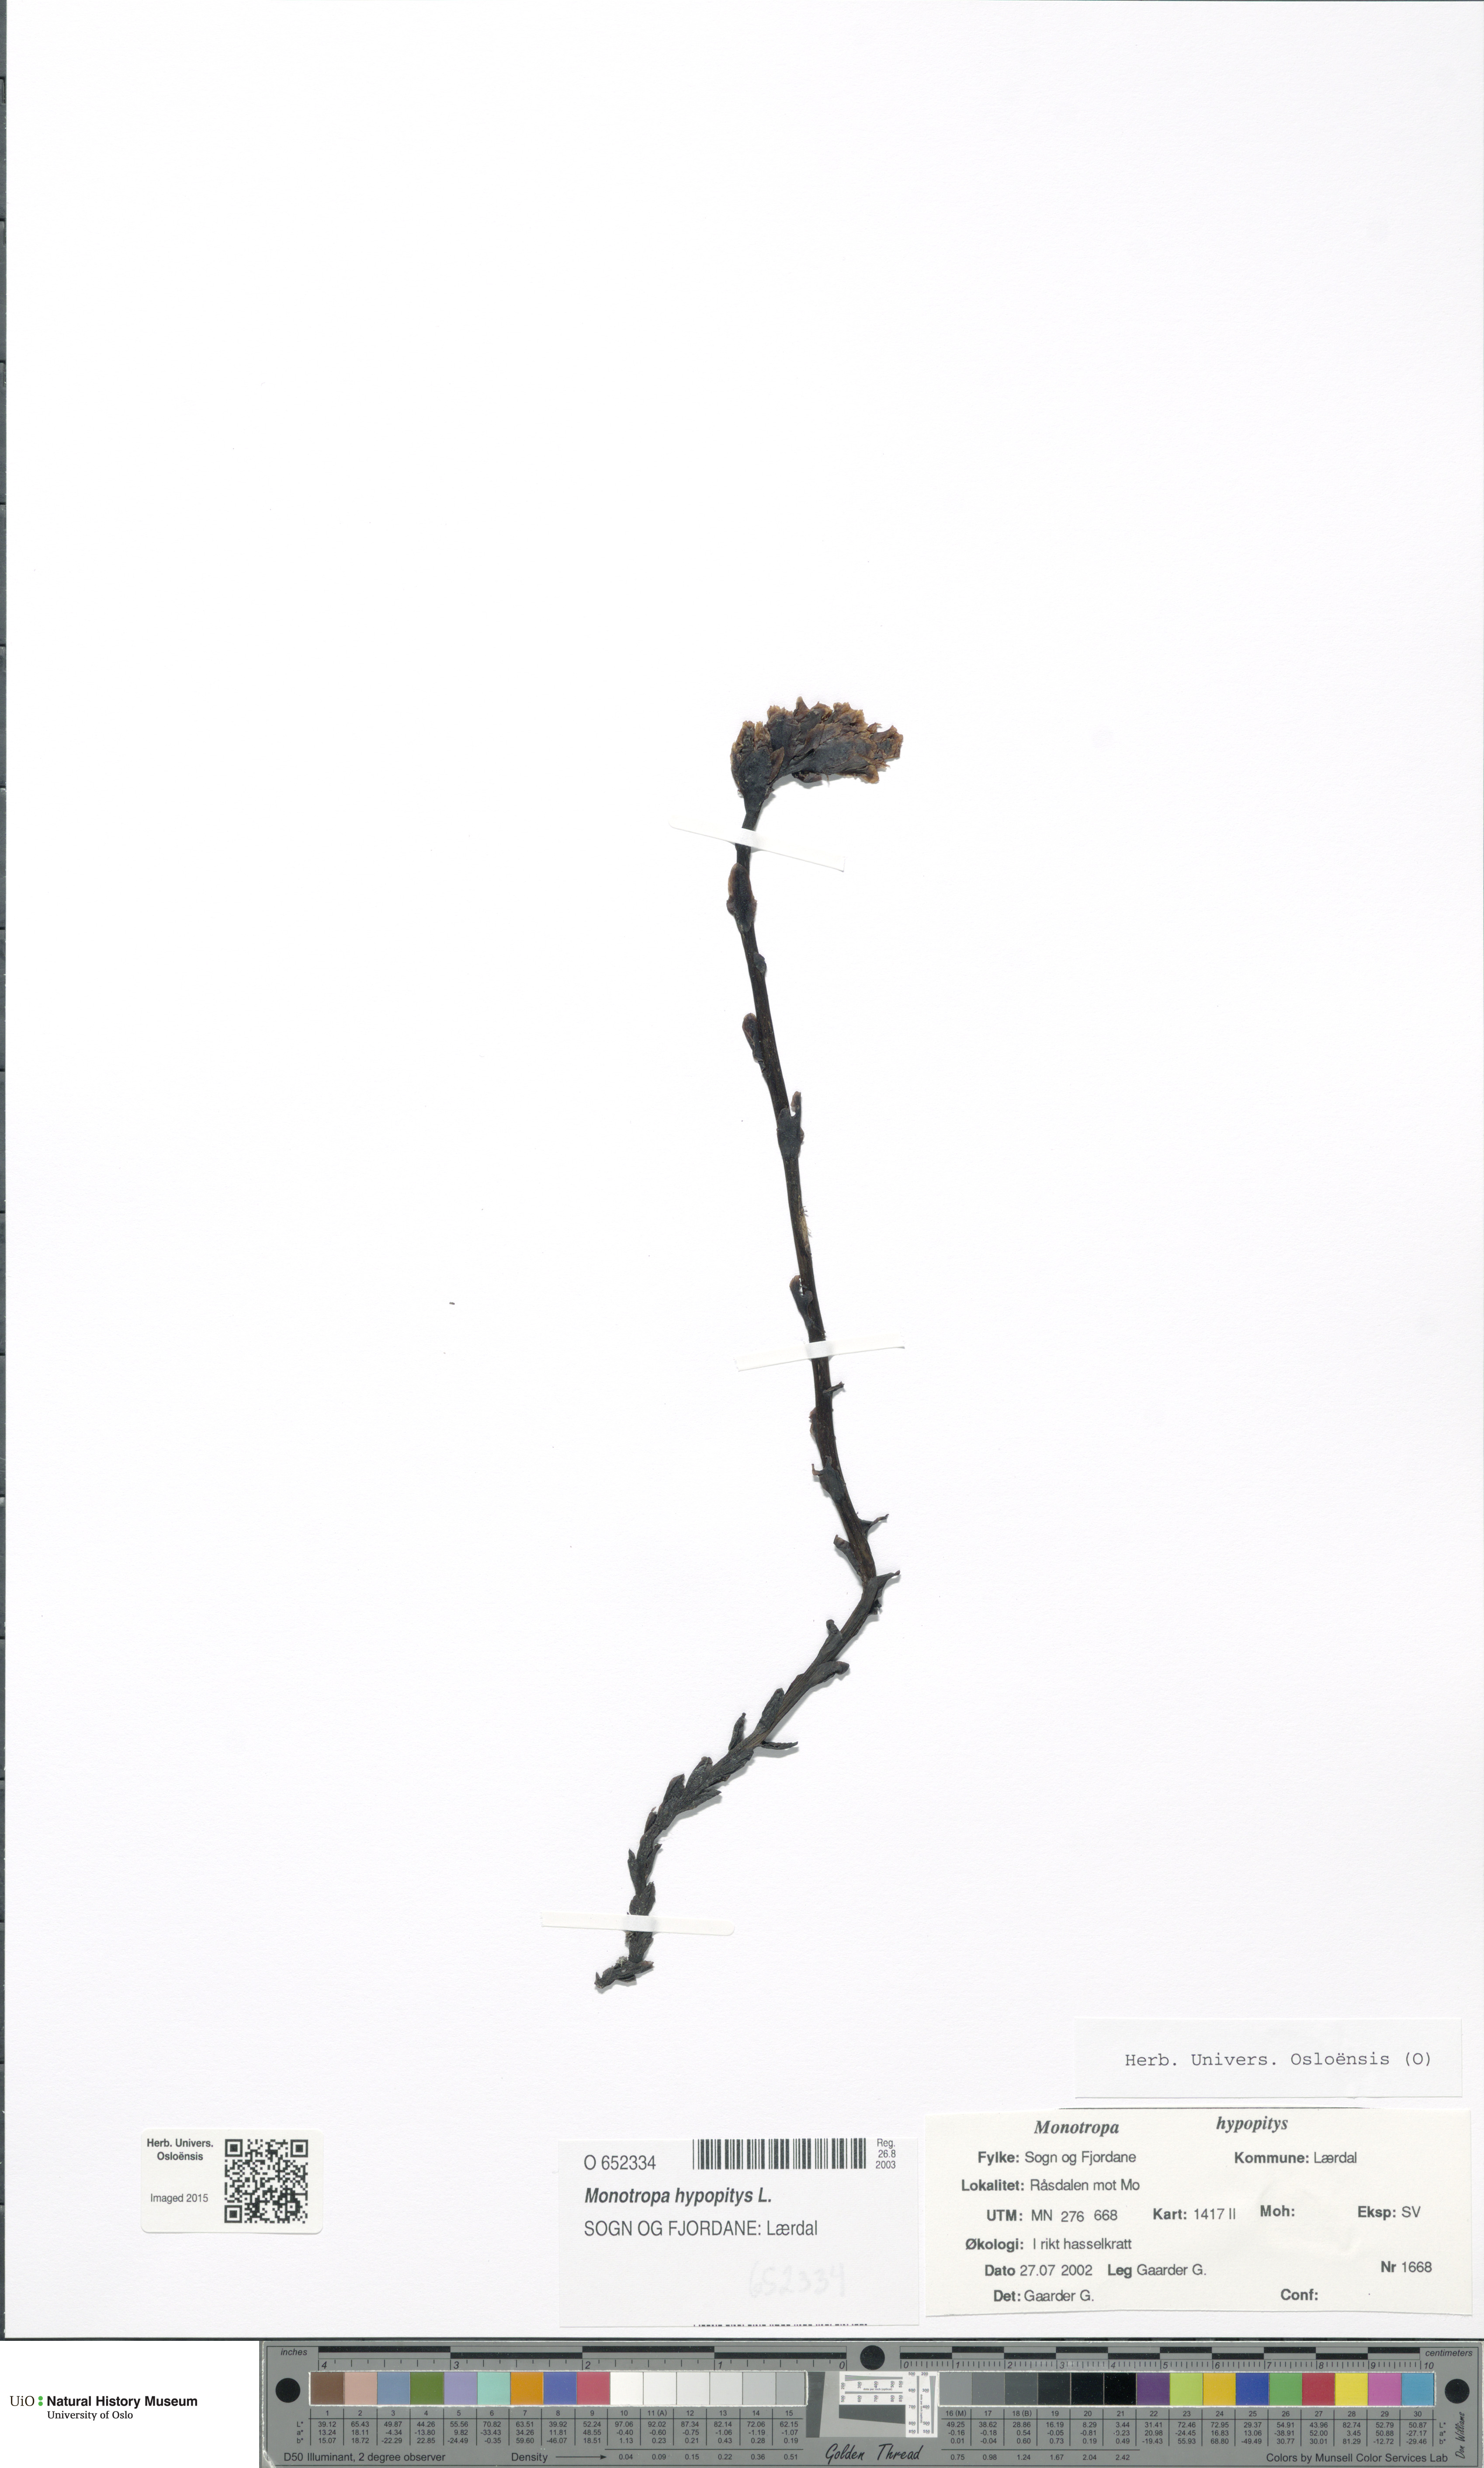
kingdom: Plantae
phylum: Tracheophyta
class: Magnoliopsida
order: Ericales
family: Ericaceae
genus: Hypopitys
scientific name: Hypopitys monotropa
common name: Yellow bird's-nest
